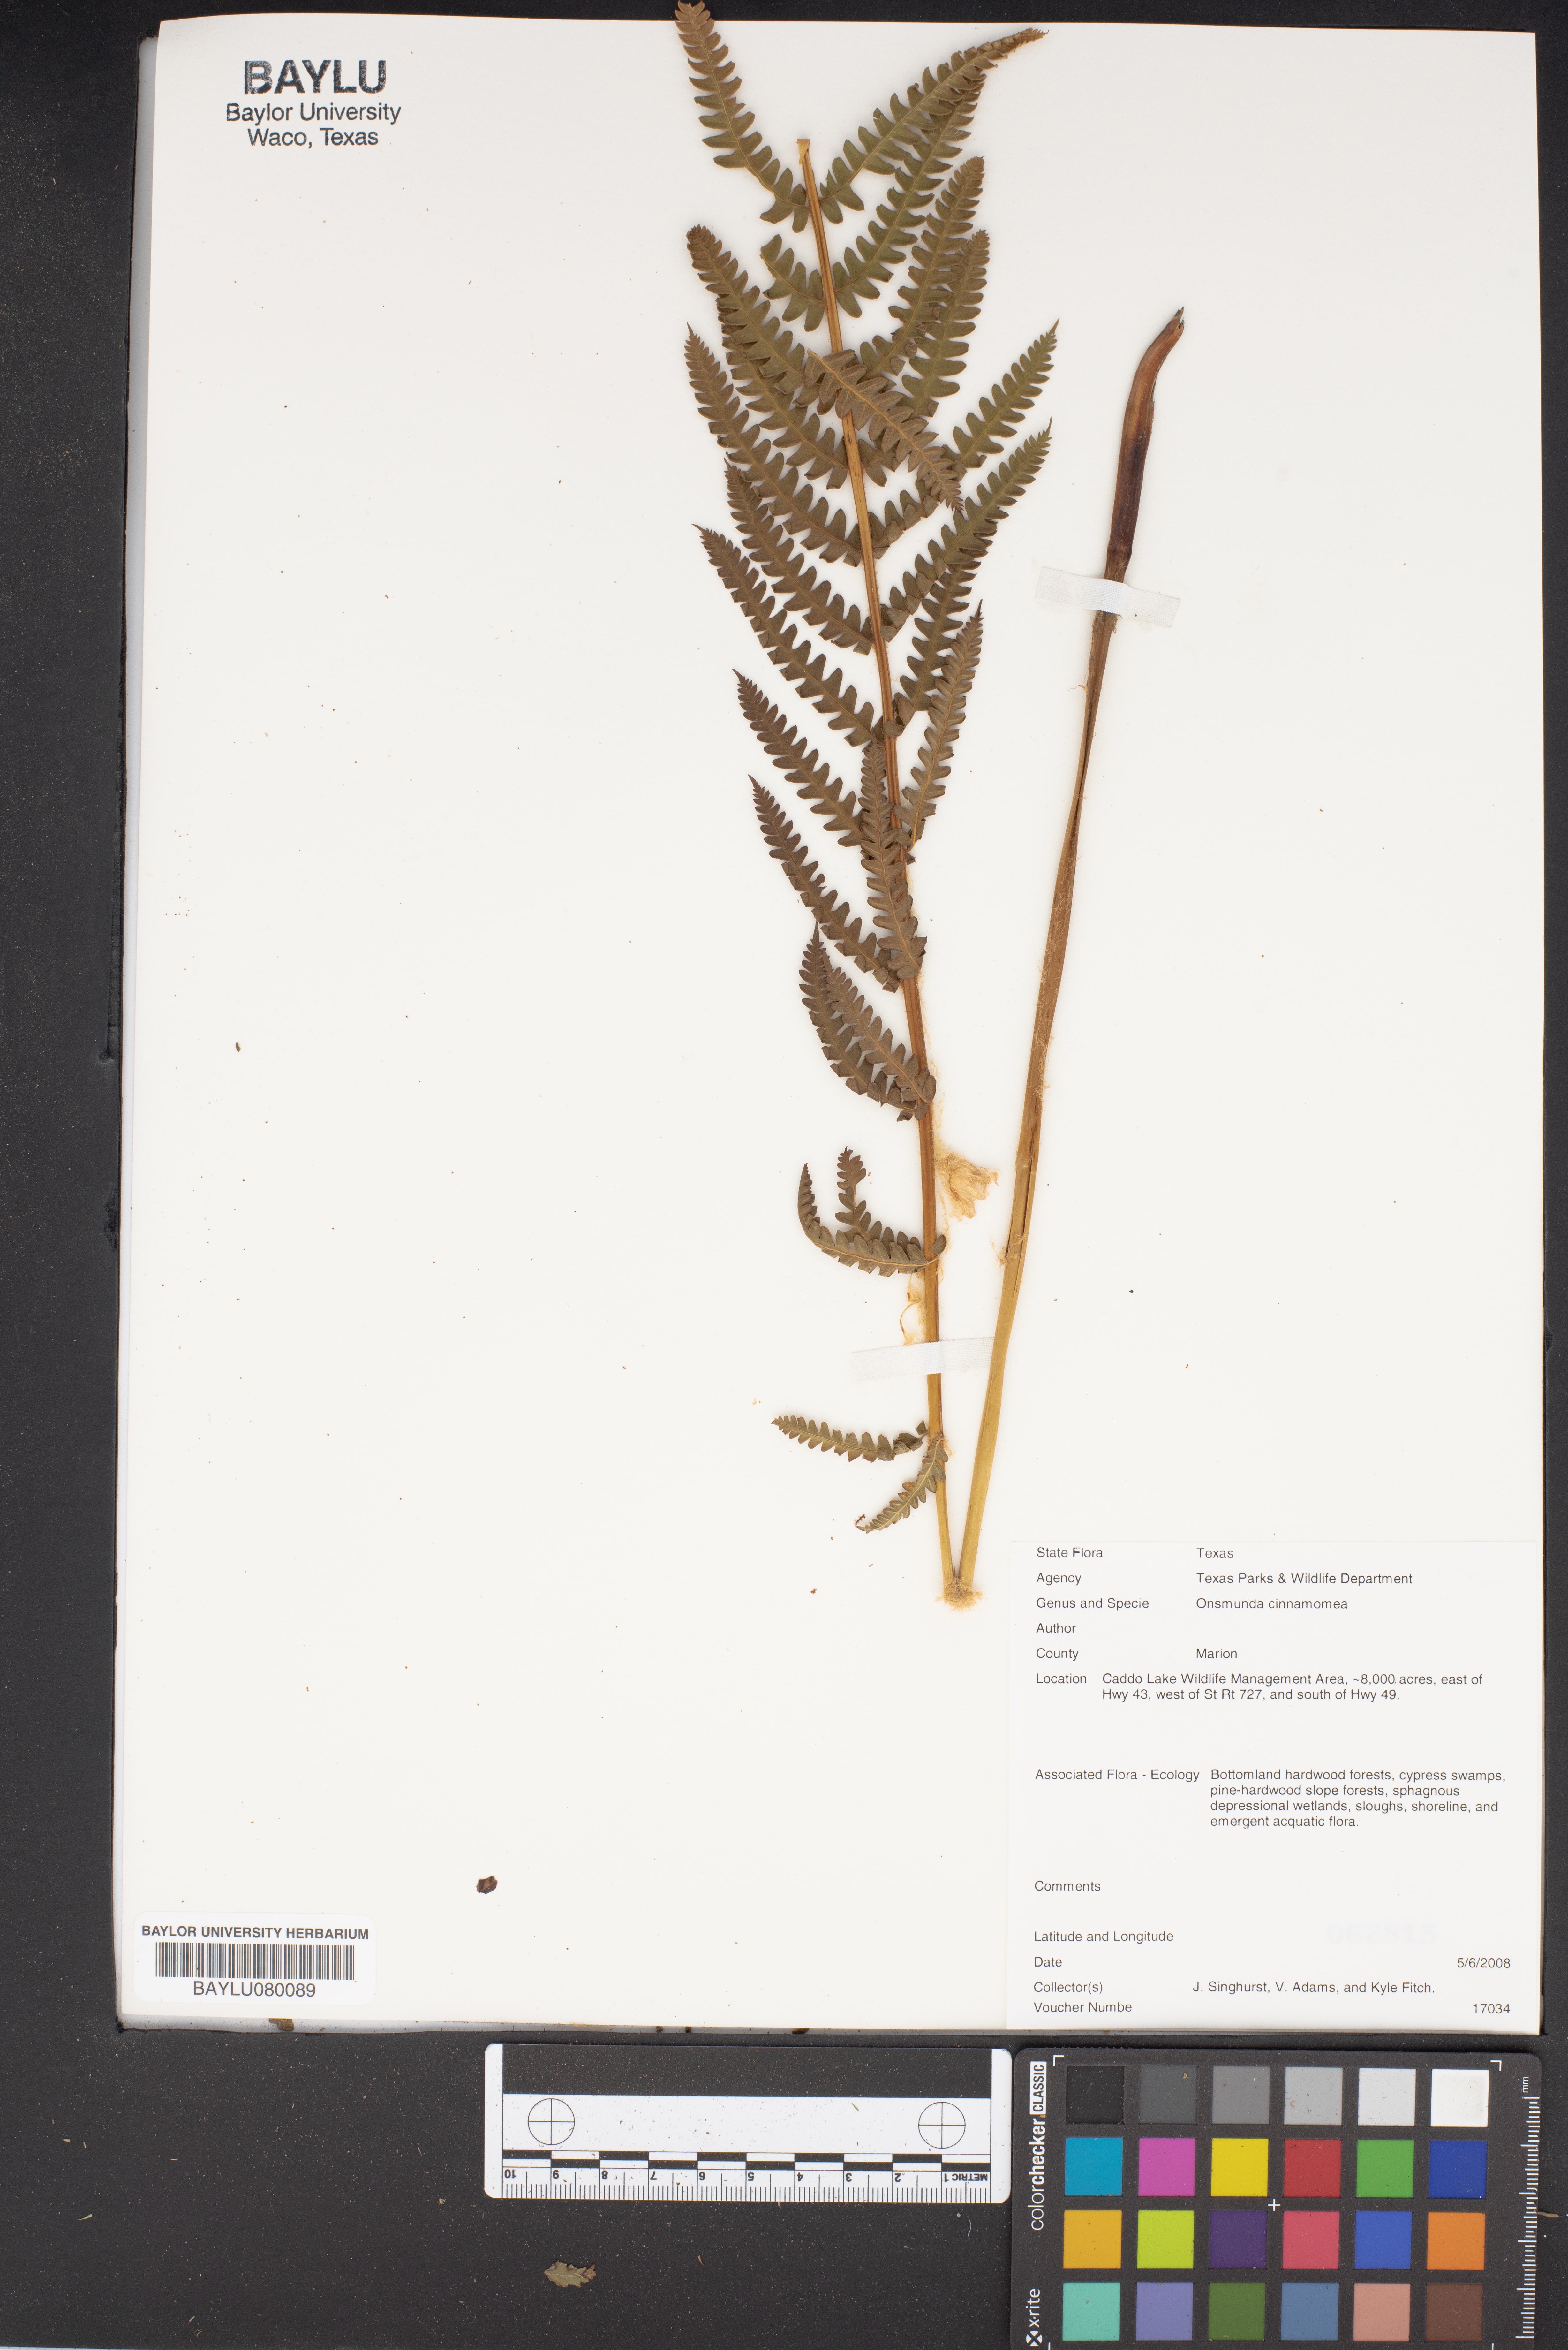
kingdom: Plantae
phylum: Tracheophyta
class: Polypodiopsida
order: Osmundales
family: Osmundaceae
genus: Osmundastrum
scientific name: Osmundastrum cinnamomeum
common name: Cinnamon fern
